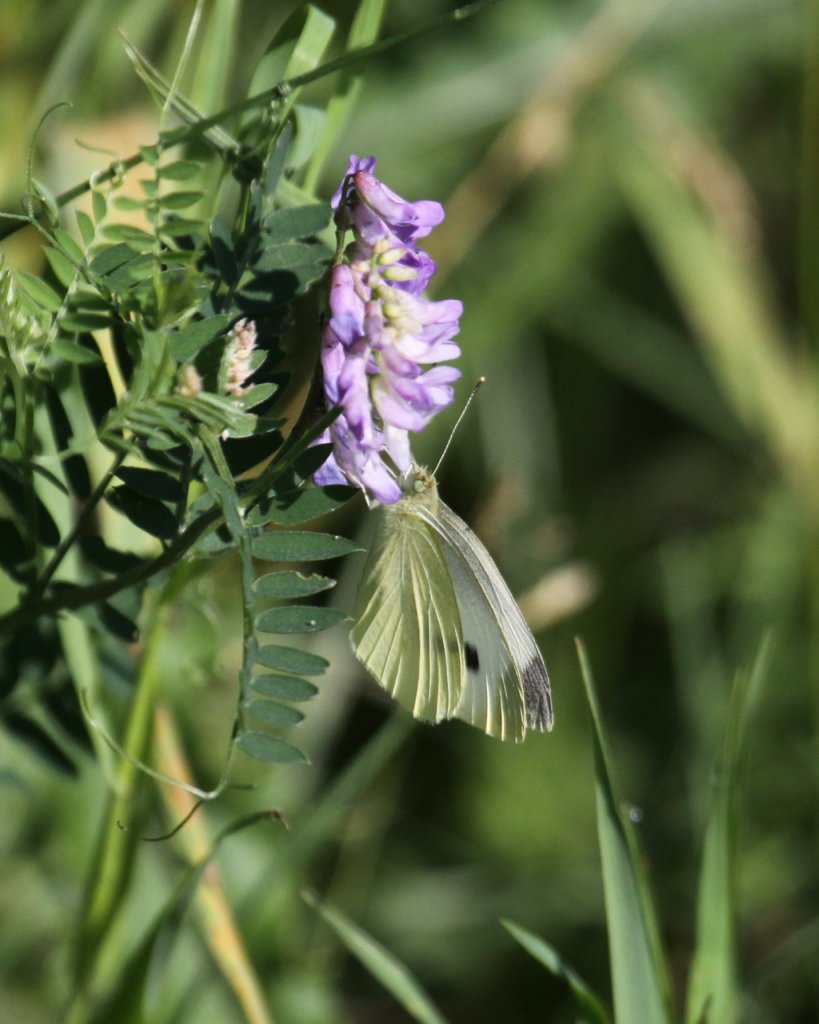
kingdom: Animalia
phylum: Arthropoda
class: Insecta
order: Lepidoptera
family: Pieridae
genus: Pieris
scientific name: Pieris rapae
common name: Cabbage White
